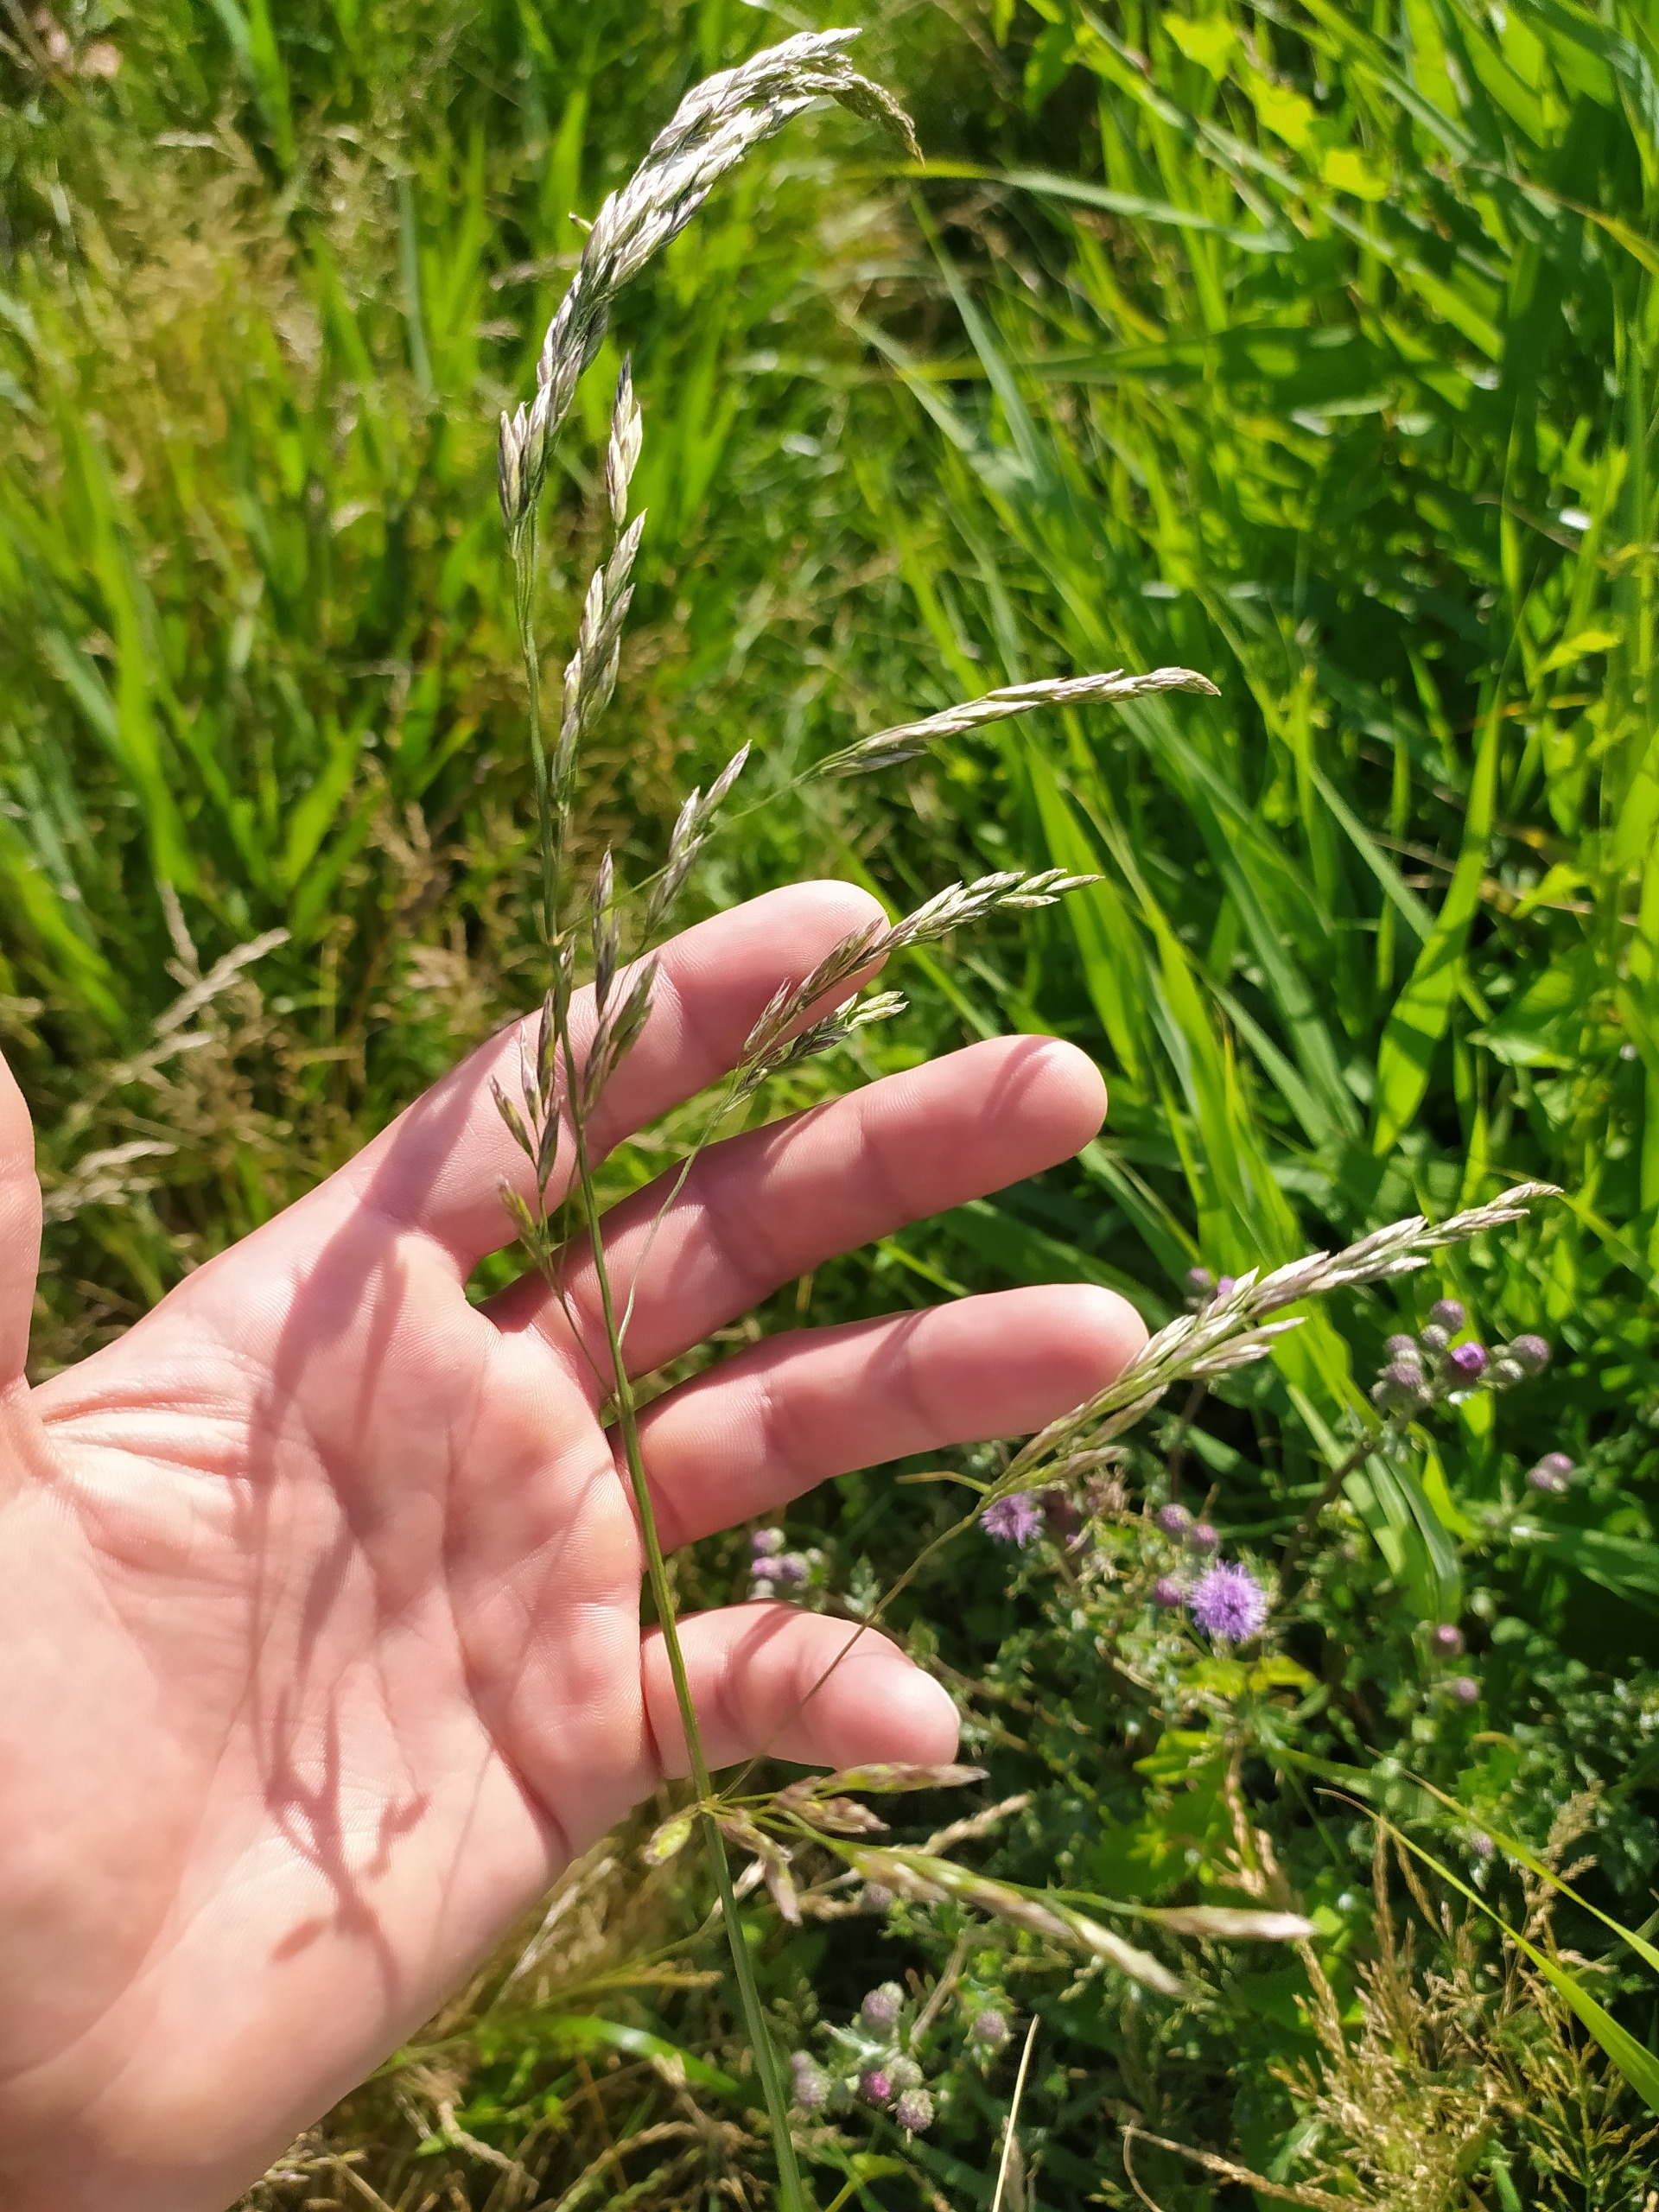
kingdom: Plantae
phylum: Tracheophyta
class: Liliopsida
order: Poales
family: Poaceae
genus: Lolium
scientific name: Lolium arundinaceum
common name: Strand-svingel
